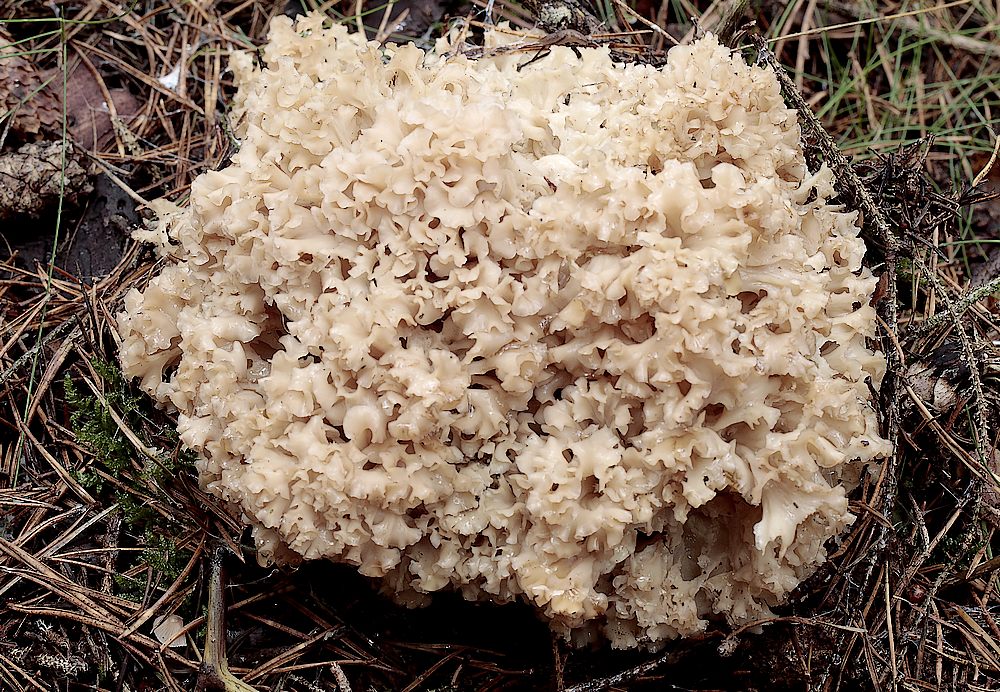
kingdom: Fungi
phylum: Basidiomycota
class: Agaricomycetes
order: Polyporales
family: Sparassidaceae
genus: Sparassis
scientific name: Sparassis crispa
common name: kruset blomkålssvamp
